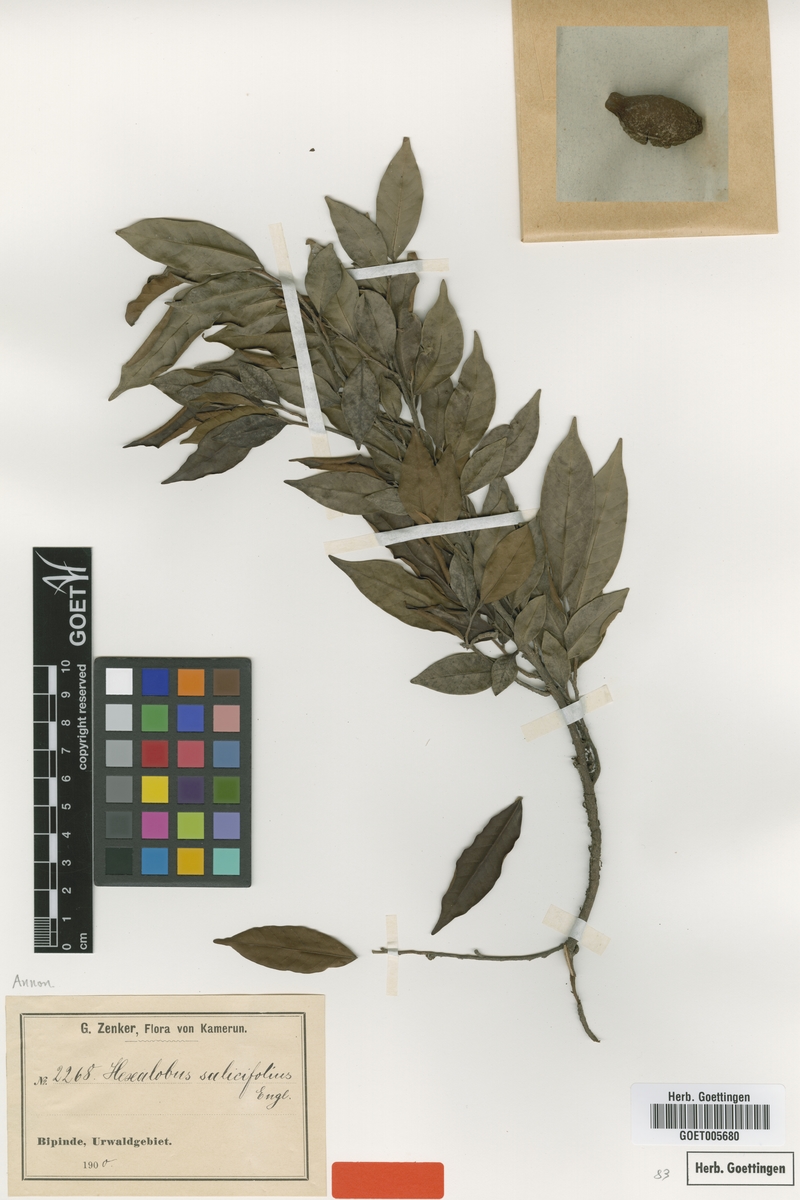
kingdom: Plantae
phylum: Tracheophyta
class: Magnoliopsida
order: Magnoliales
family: Annonaceae
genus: Hexalobus
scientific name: Hexalobus salicifolius
